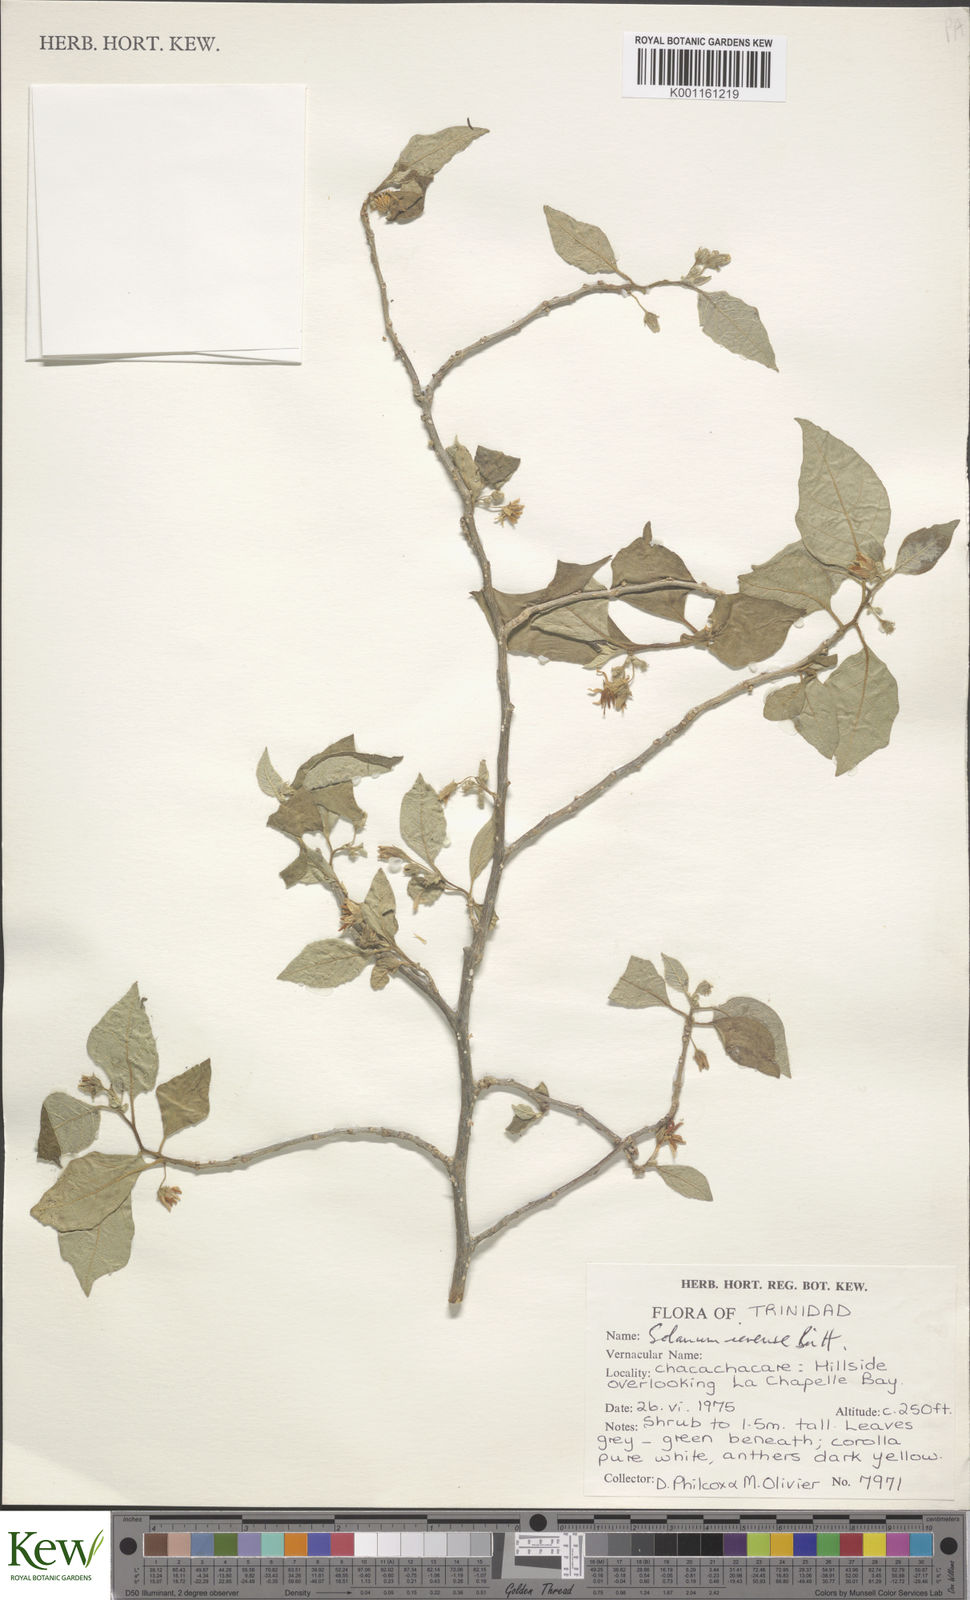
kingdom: Plantae
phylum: Tracheophyta
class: Magnoliopsida
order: Solanales
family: Solanaceae
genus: Solanum
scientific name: Solanum gardneri
